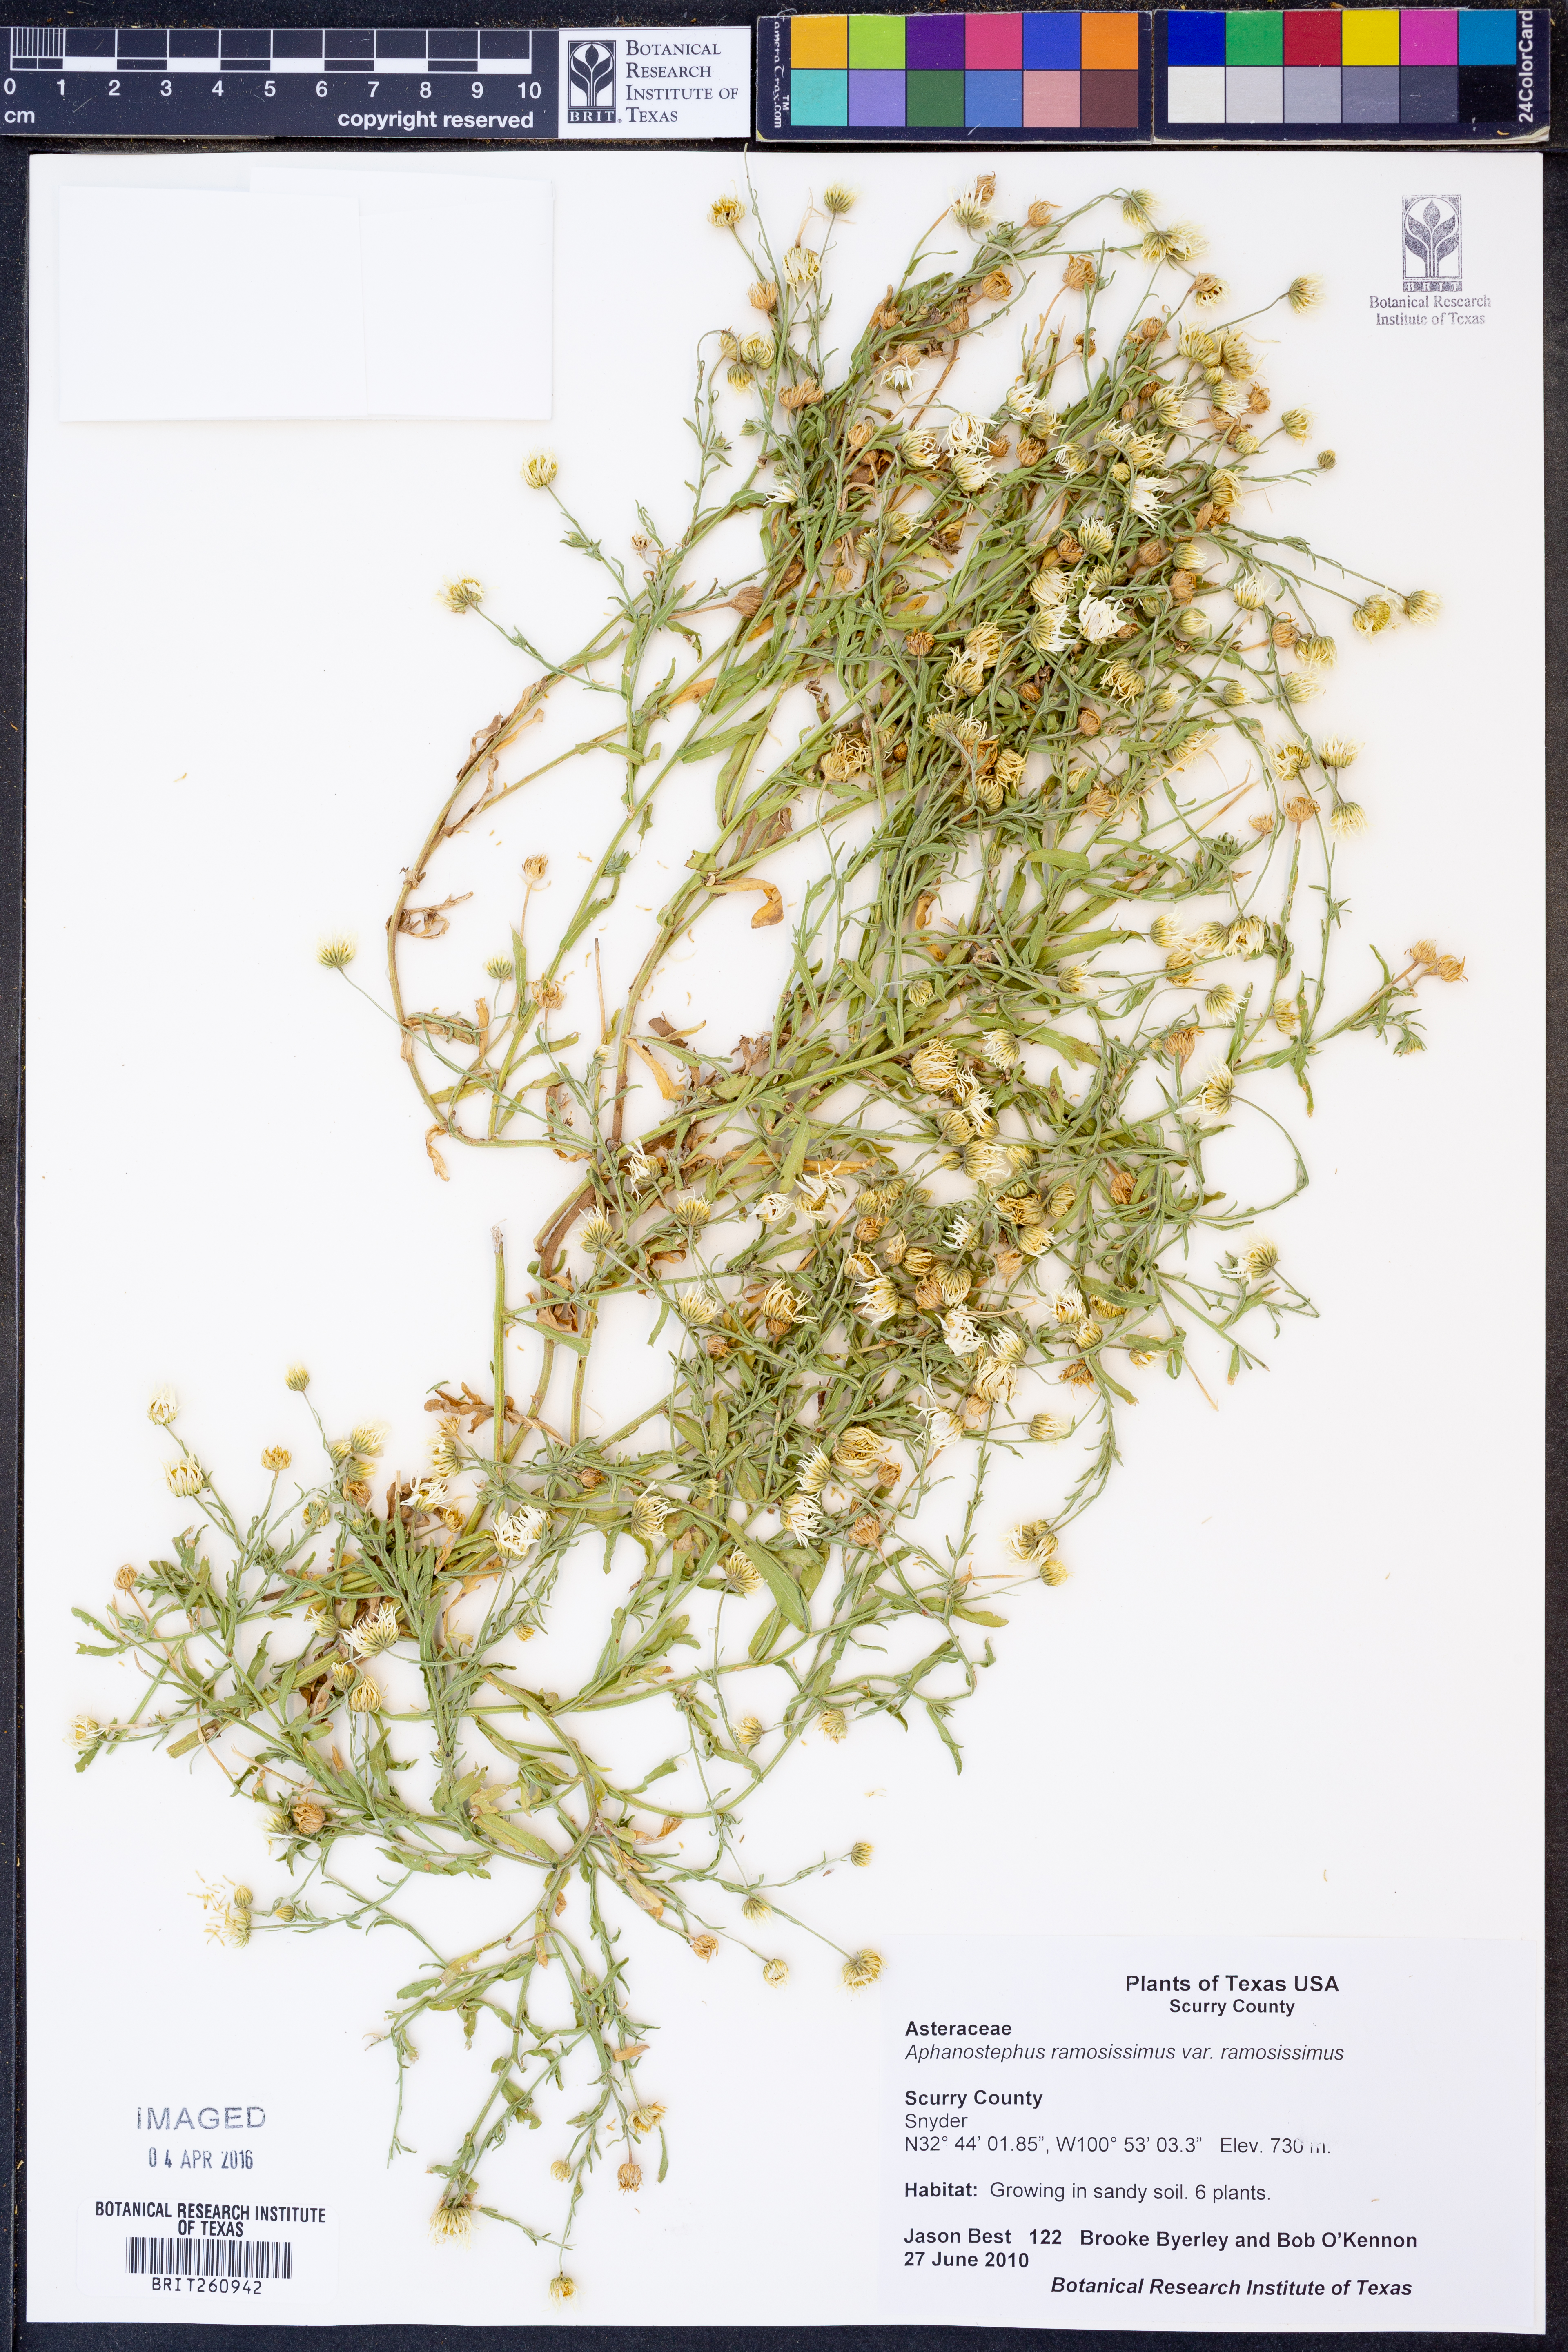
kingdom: Plantae
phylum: Tracheophyta
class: Magnoliopsida
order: Asterales
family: Asteraceae
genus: Aphanostephus
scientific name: Aphanostephus ramosissimus
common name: Plains lazy daisy
